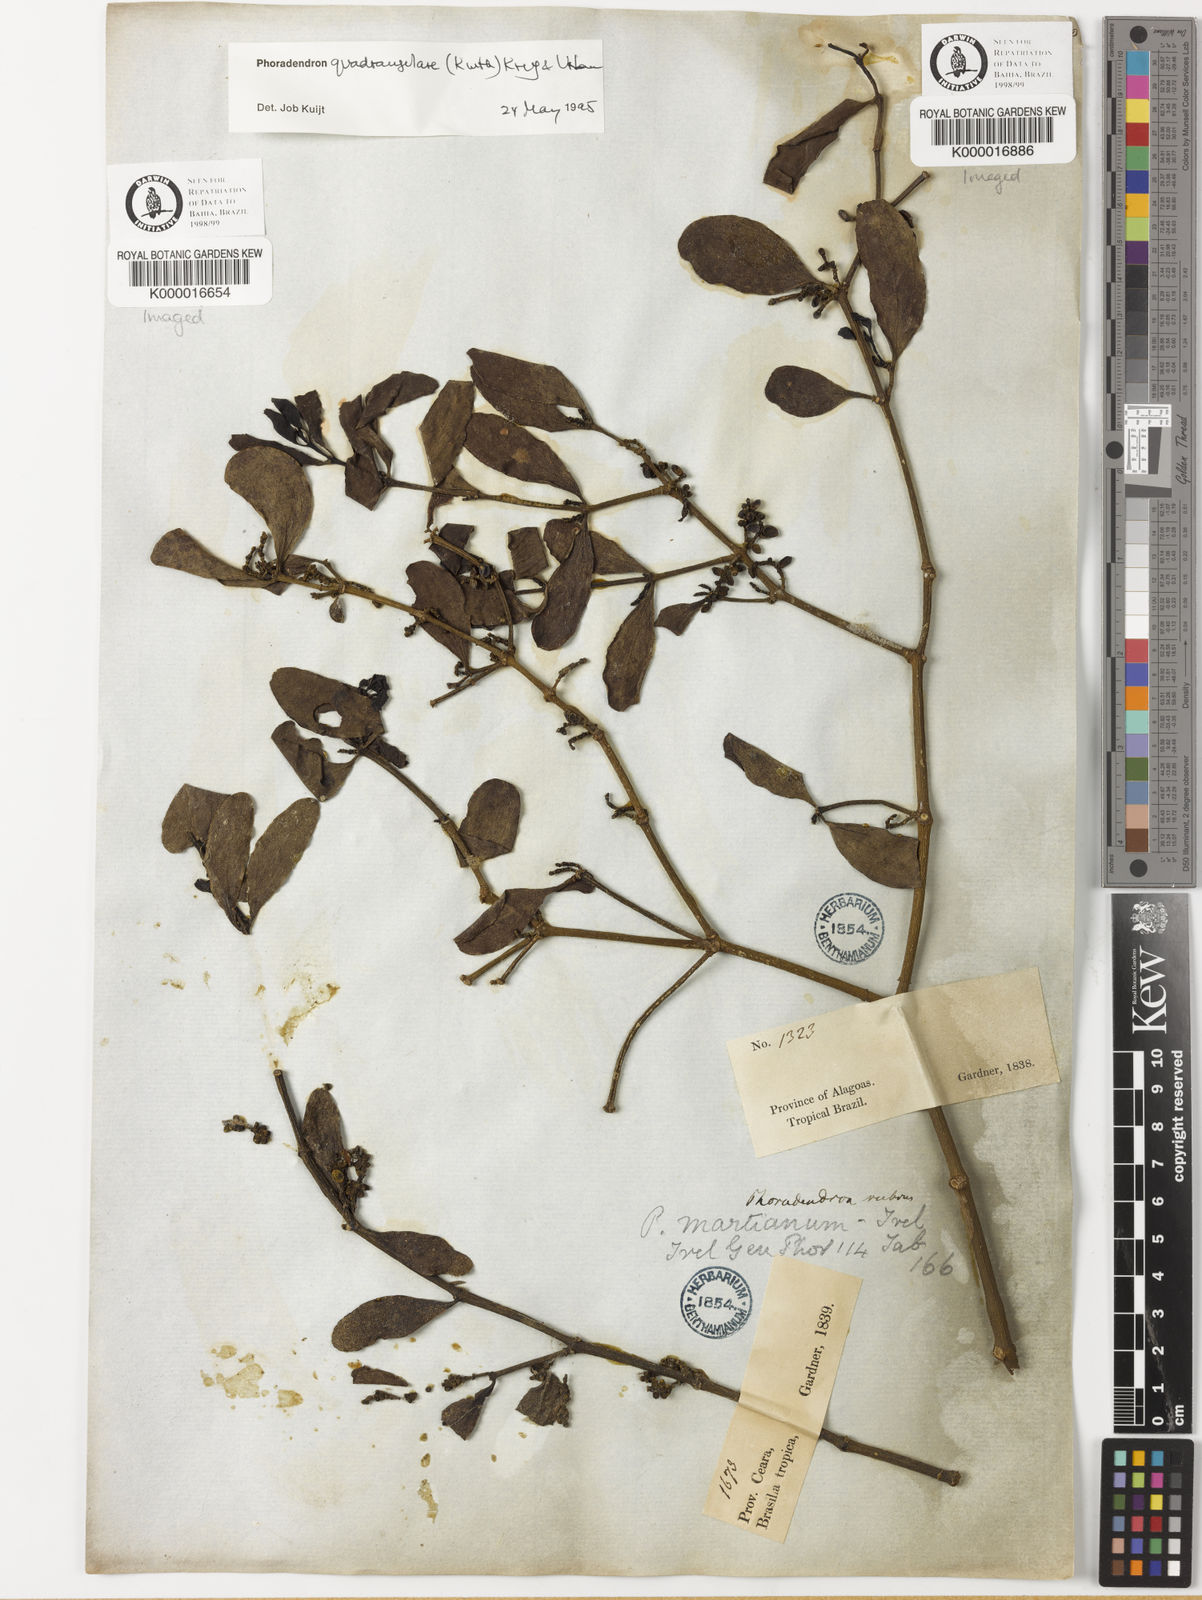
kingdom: Plantae
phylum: Tracheophyta
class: Magnoliopsida
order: Santalales
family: Viscaceae
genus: Phoradendron
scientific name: Phoradendron
